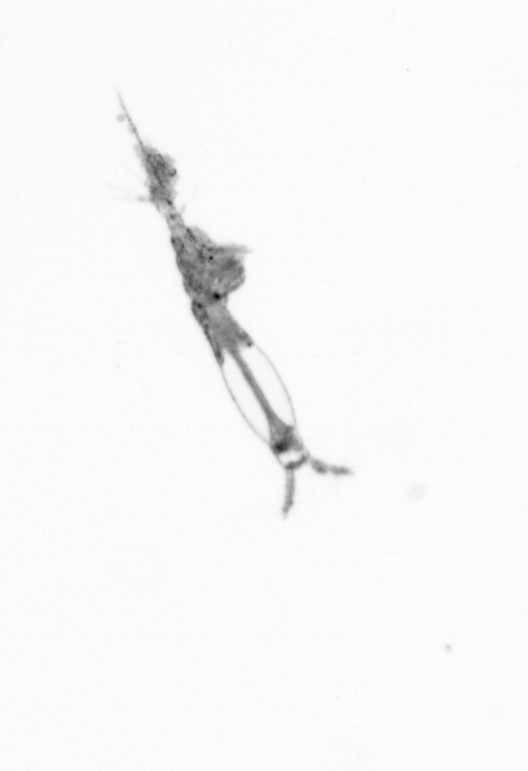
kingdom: Animalia
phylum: Arthropoda
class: Copepoda
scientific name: Copepoda
